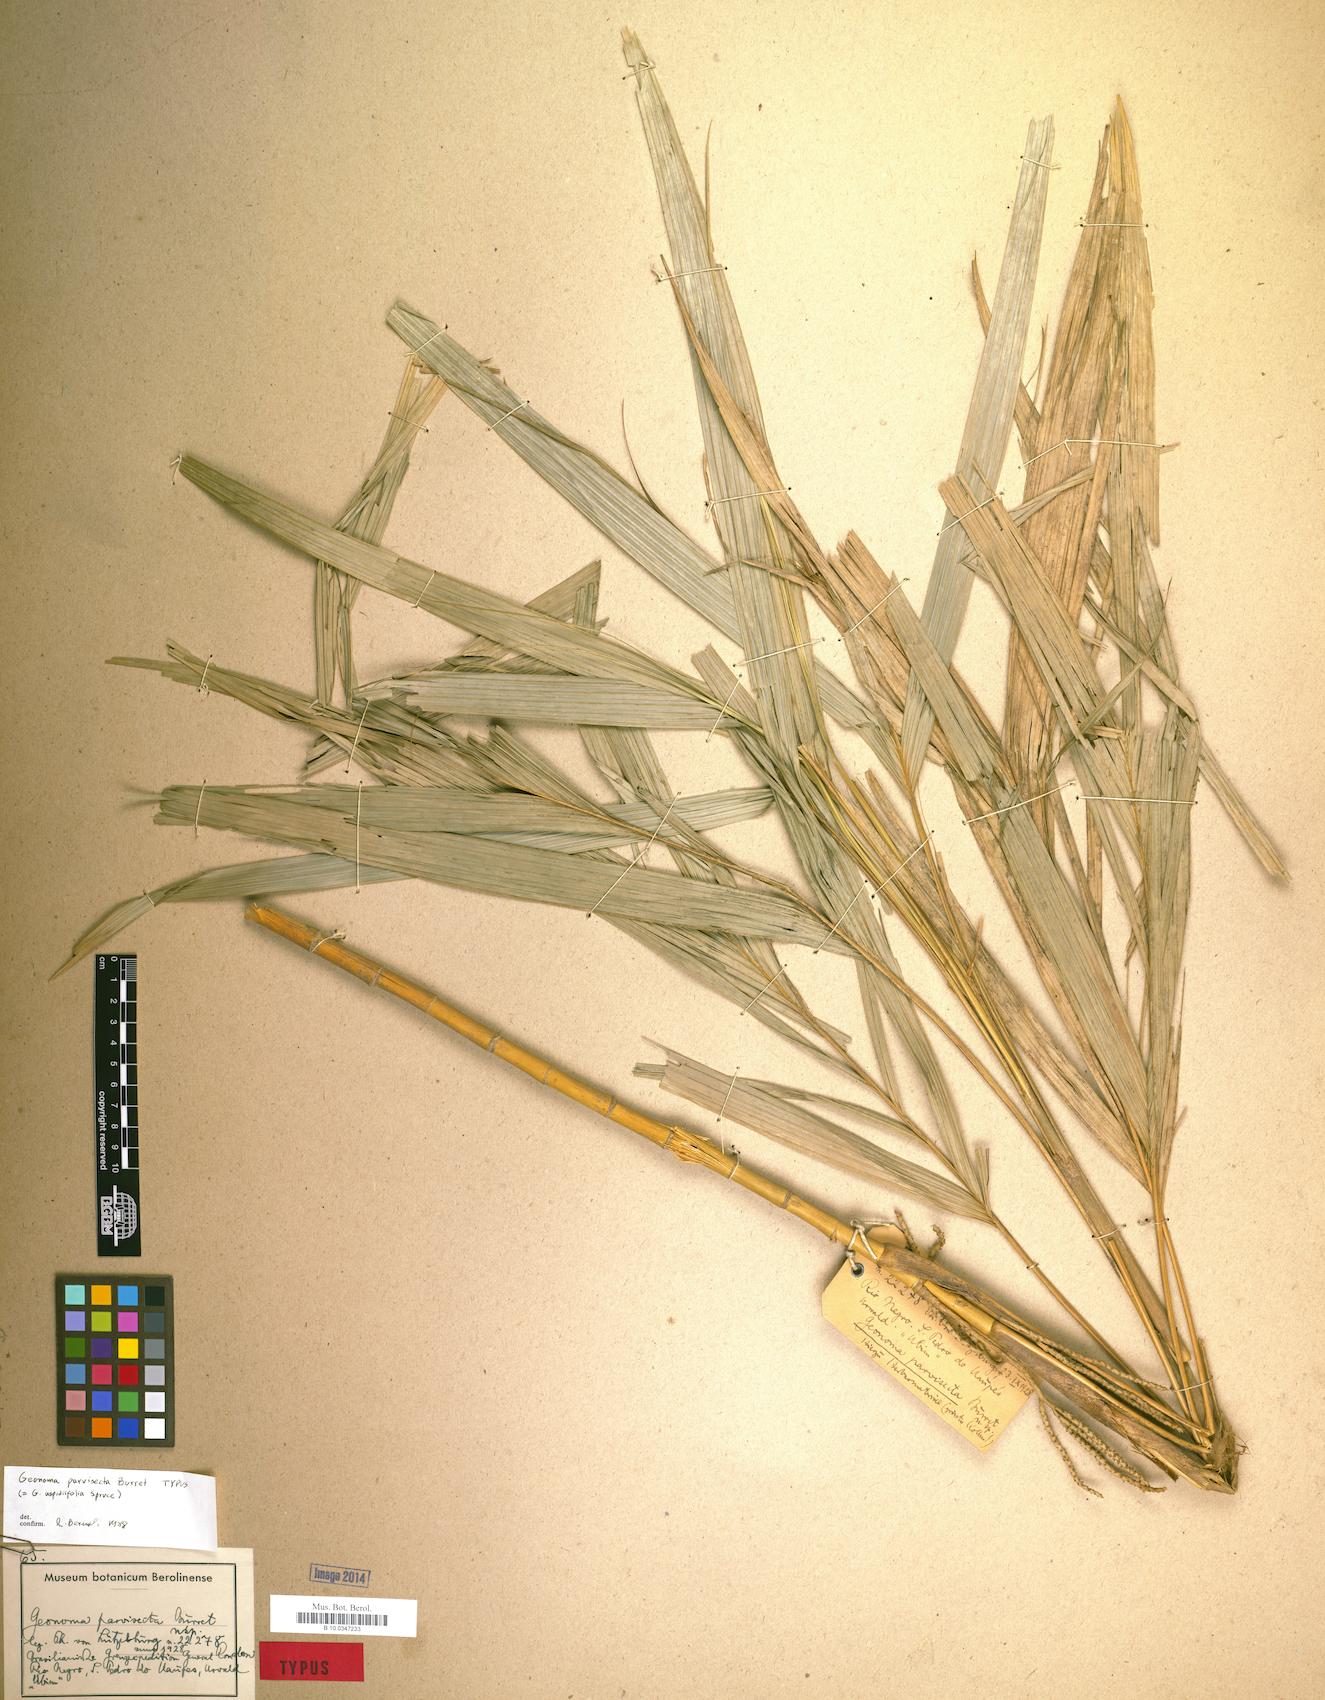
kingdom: Plantae
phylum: Tracheophyta
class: Liliopsida
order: Arecales
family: Arecaceae
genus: Geonoma
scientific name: Geonoma maxima
